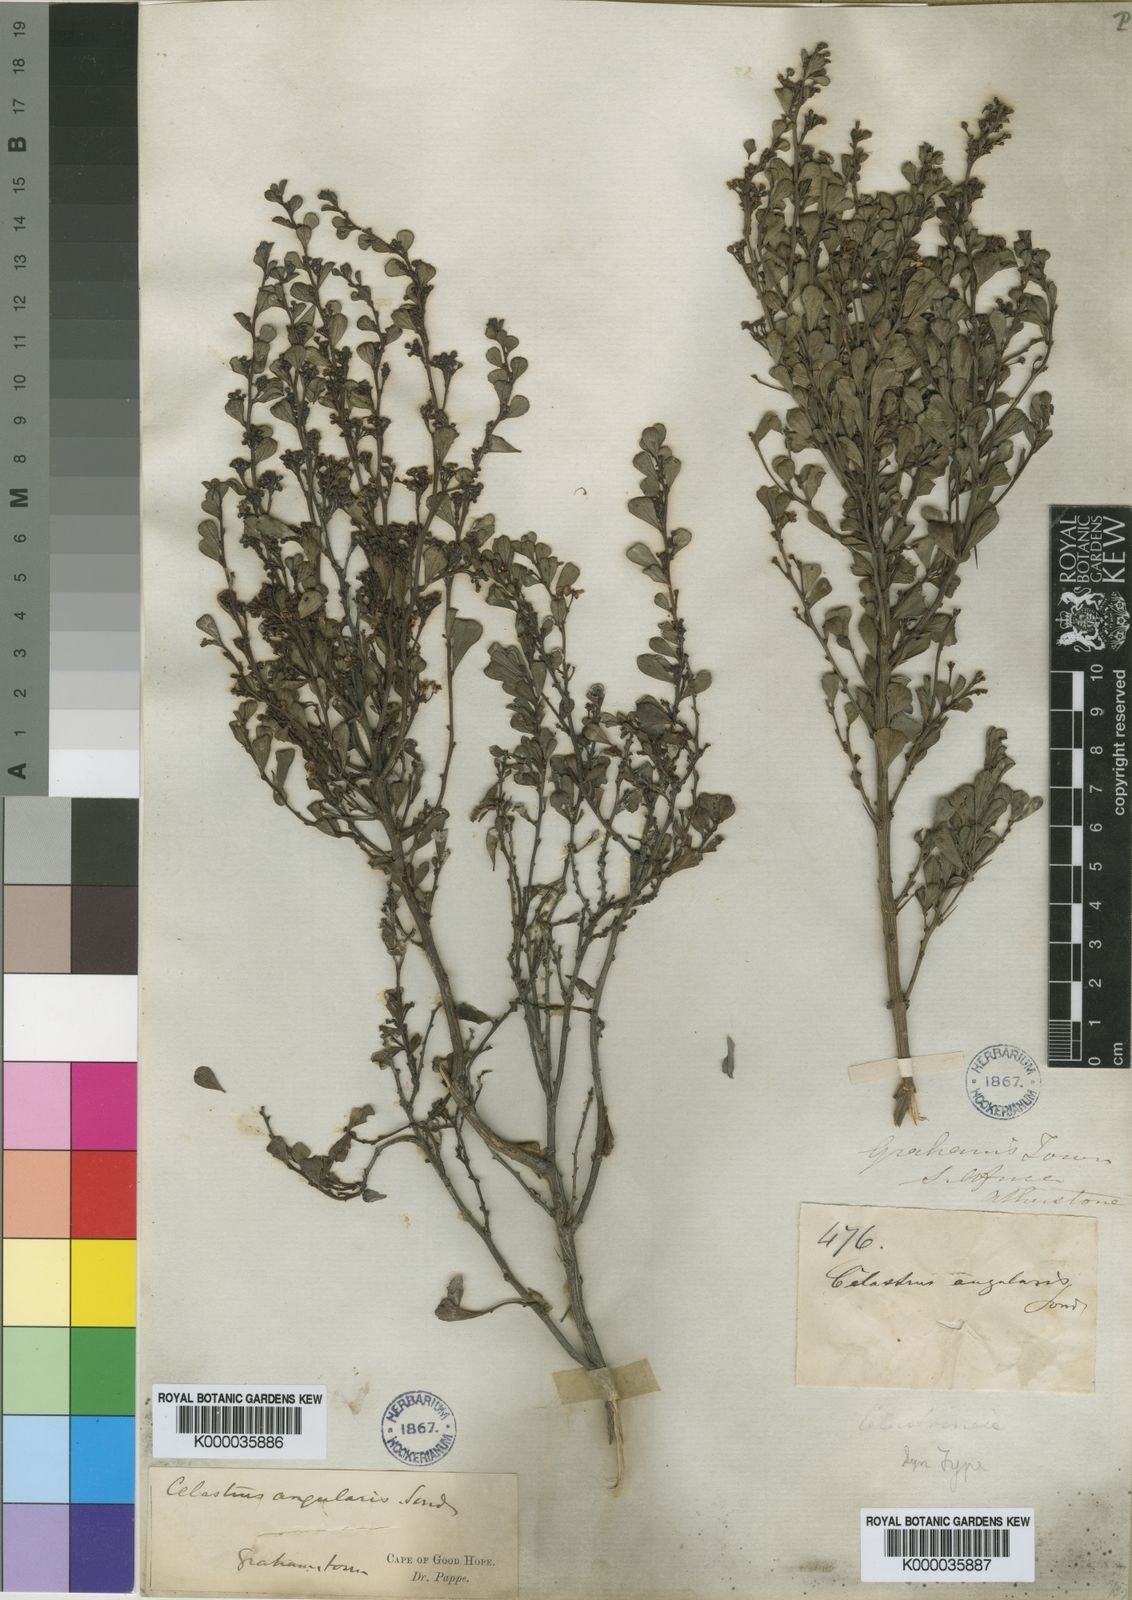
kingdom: Plantae
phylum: Tracheophyta
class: Magnoliopsida
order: Celastrales
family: Celastraceae
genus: Gymnosporia
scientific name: Gymnosporia heterophylla
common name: Angle-stem spikethorn
